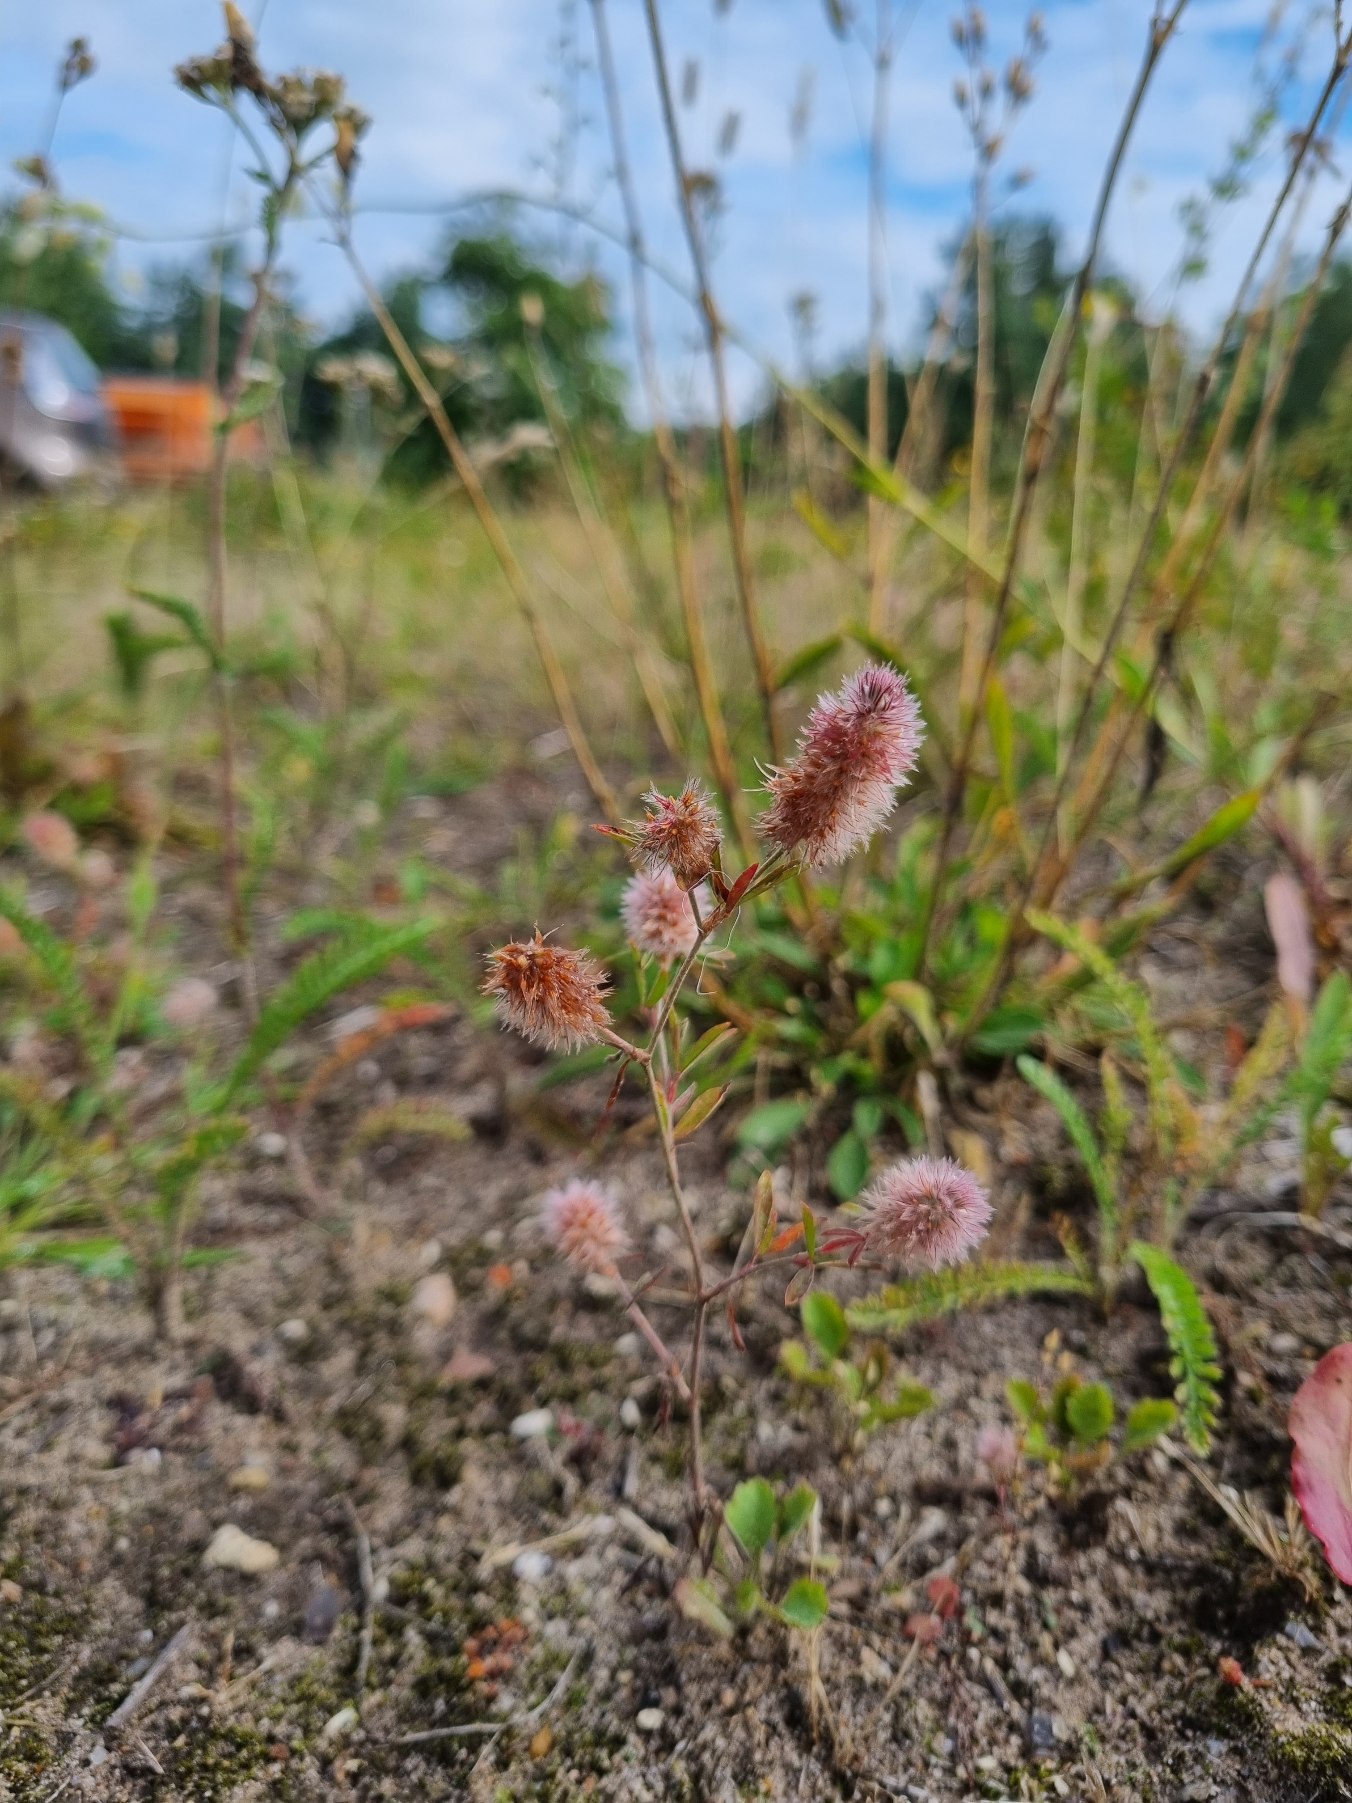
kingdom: Plantae
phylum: Tracheophyta
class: Magnoliopsida
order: Fabales
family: Fabaceae
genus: Trifolium
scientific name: Trifolium arvense
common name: Hare-kløver
